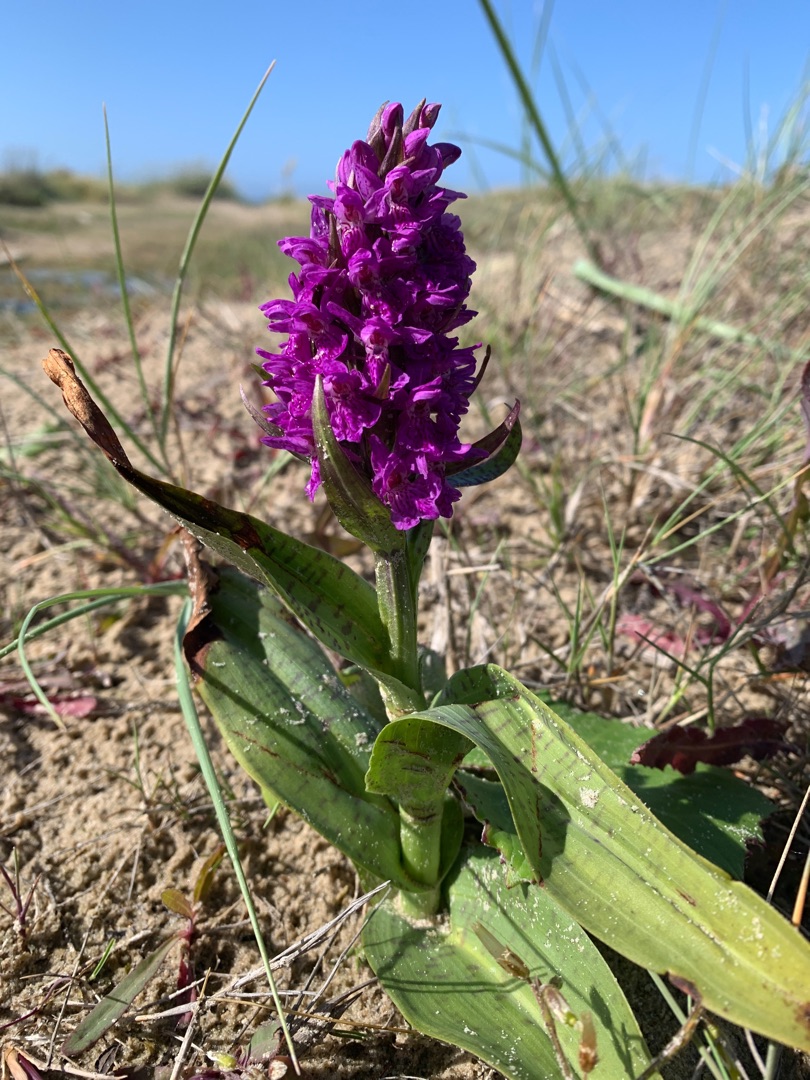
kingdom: Plantae
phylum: Tracheophyta
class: Liliopsida
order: Asparagales
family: Orchidaceae
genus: Dactylorhiza
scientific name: Dactylorhiza majalis
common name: Vendsyssel-gøgeurt
